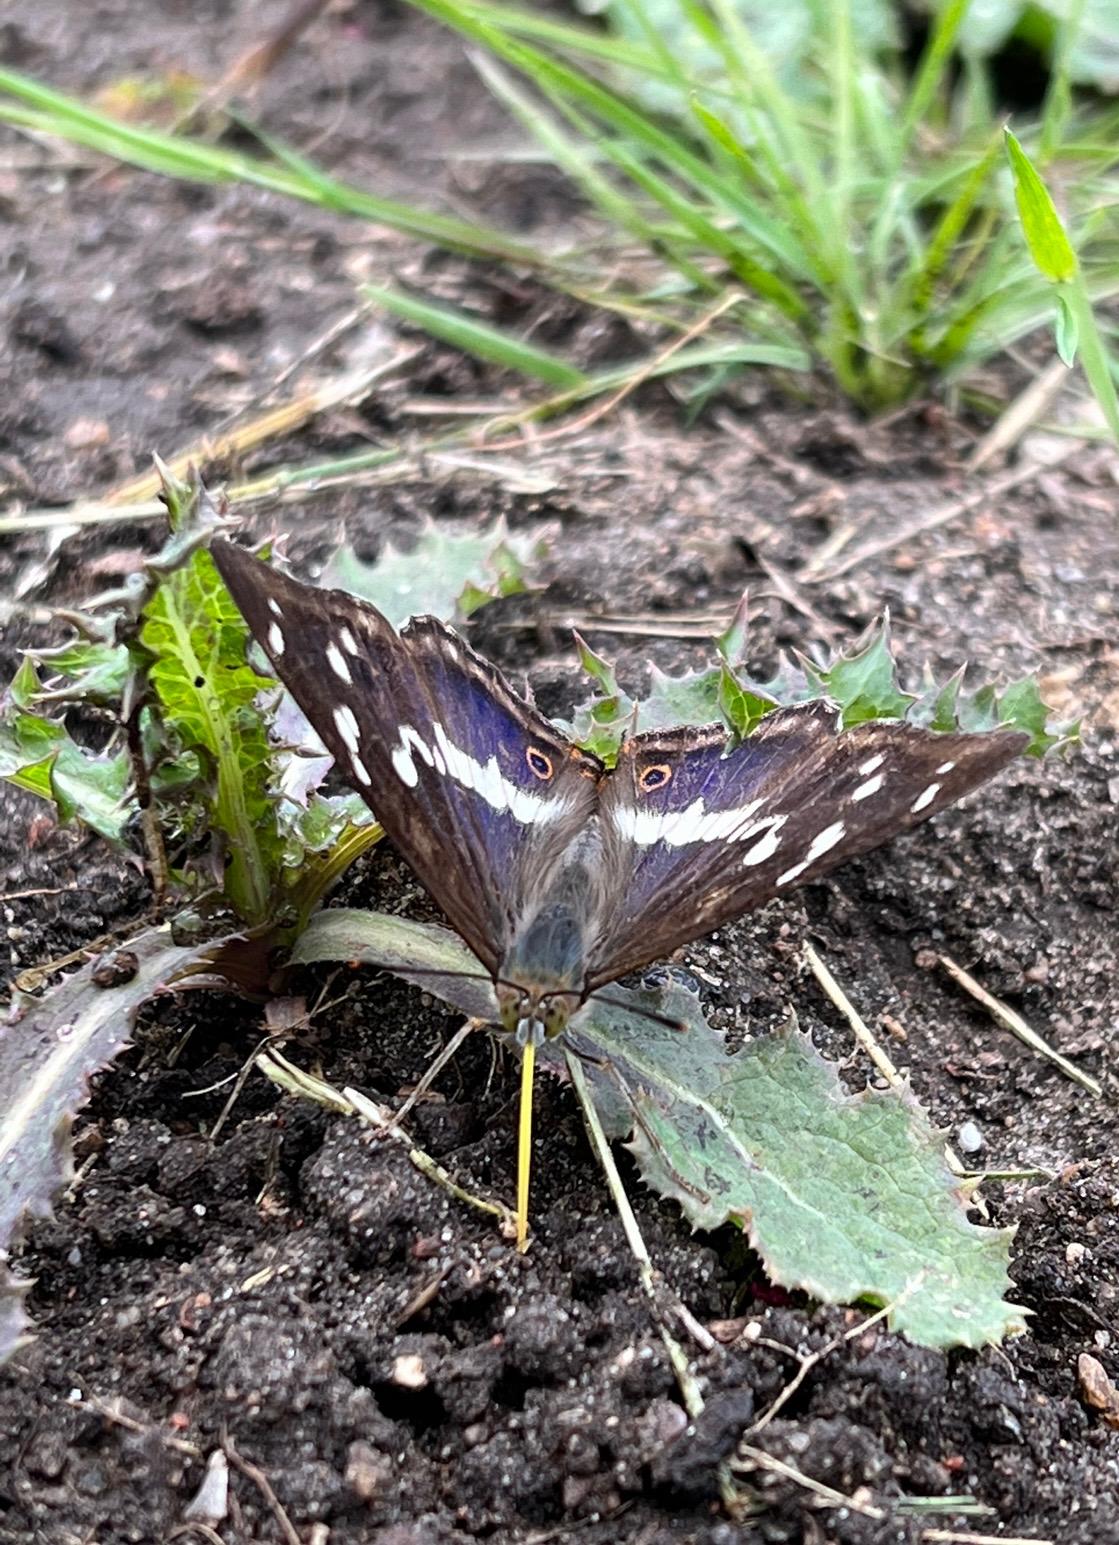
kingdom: Animalia
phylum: Arthropoda
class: Insecta
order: Lepidoptera
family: Nymphalidae
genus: Apatura
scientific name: Apatura iris
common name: Iris
